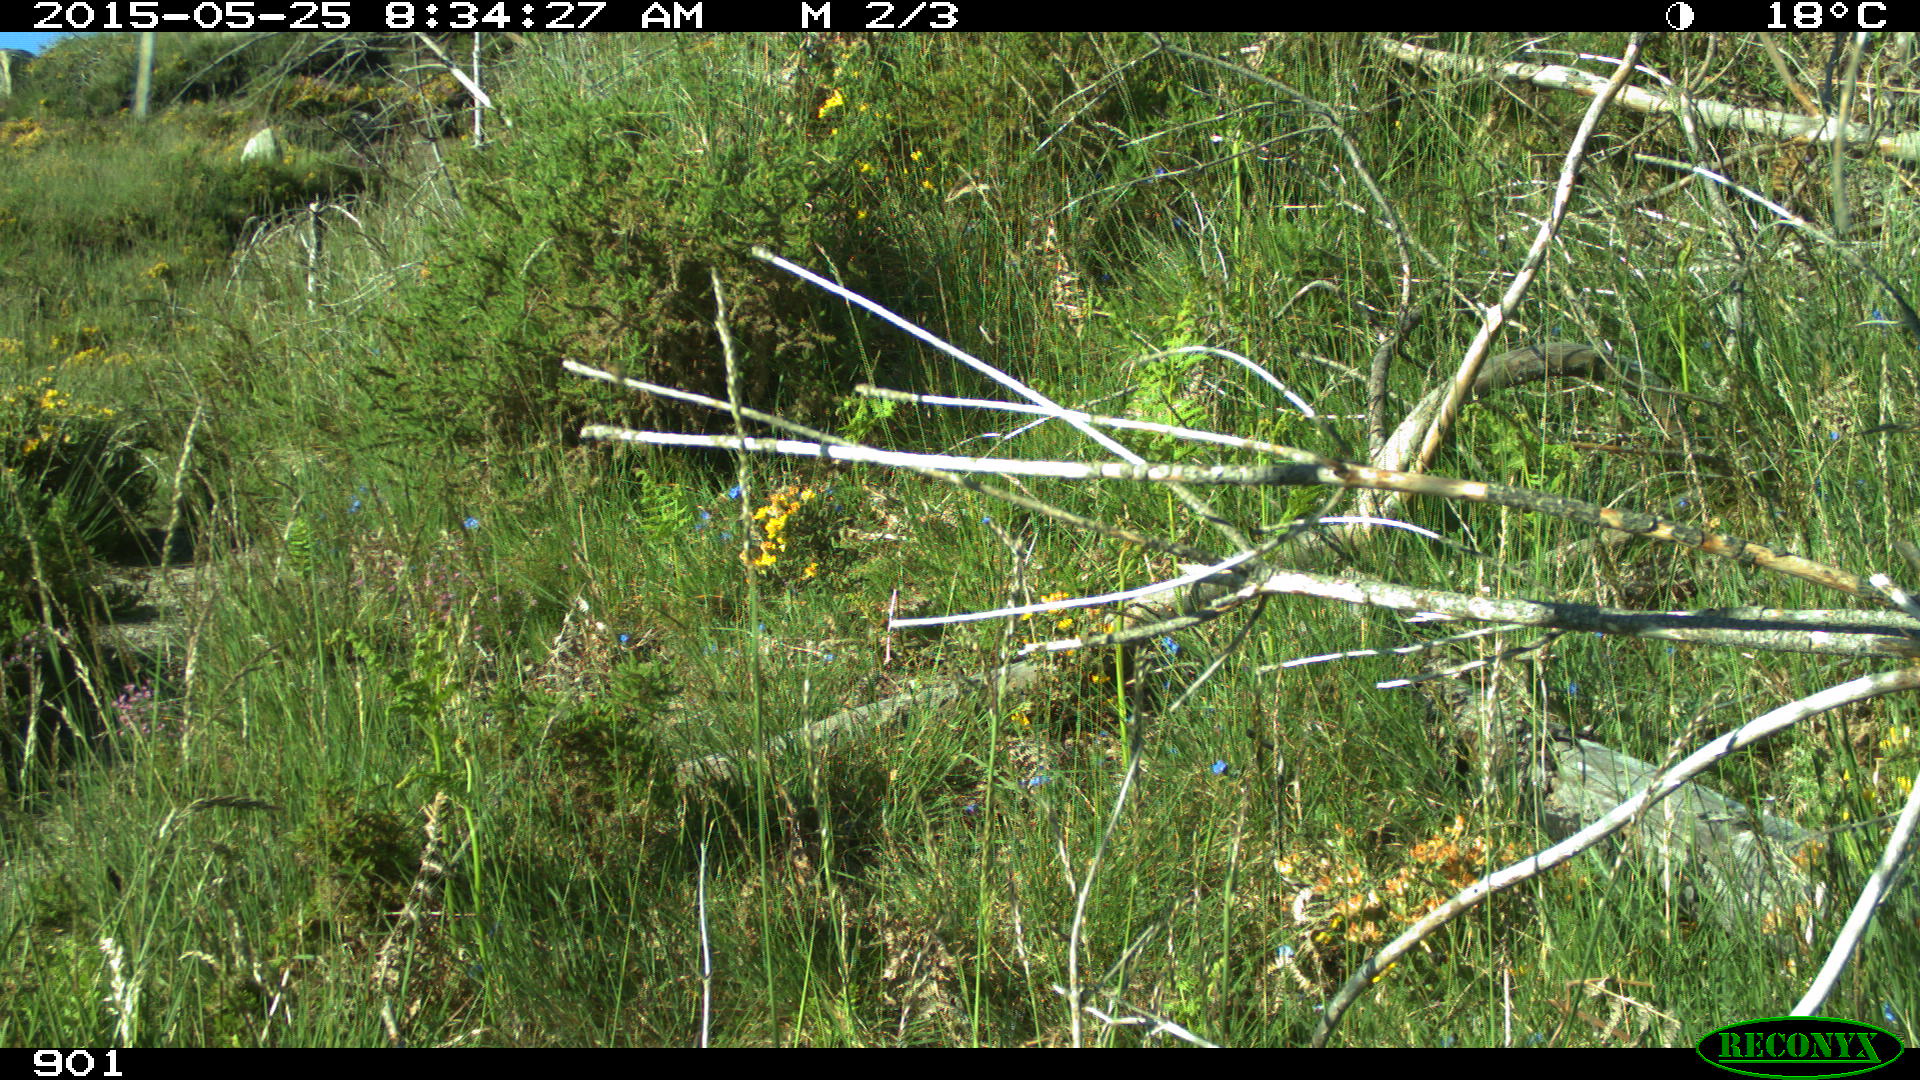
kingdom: Animalia
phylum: Chordata
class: Mammalia
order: Carnivora
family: Canidae
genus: Vulpes
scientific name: Vulpes vulpes
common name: Red fox
